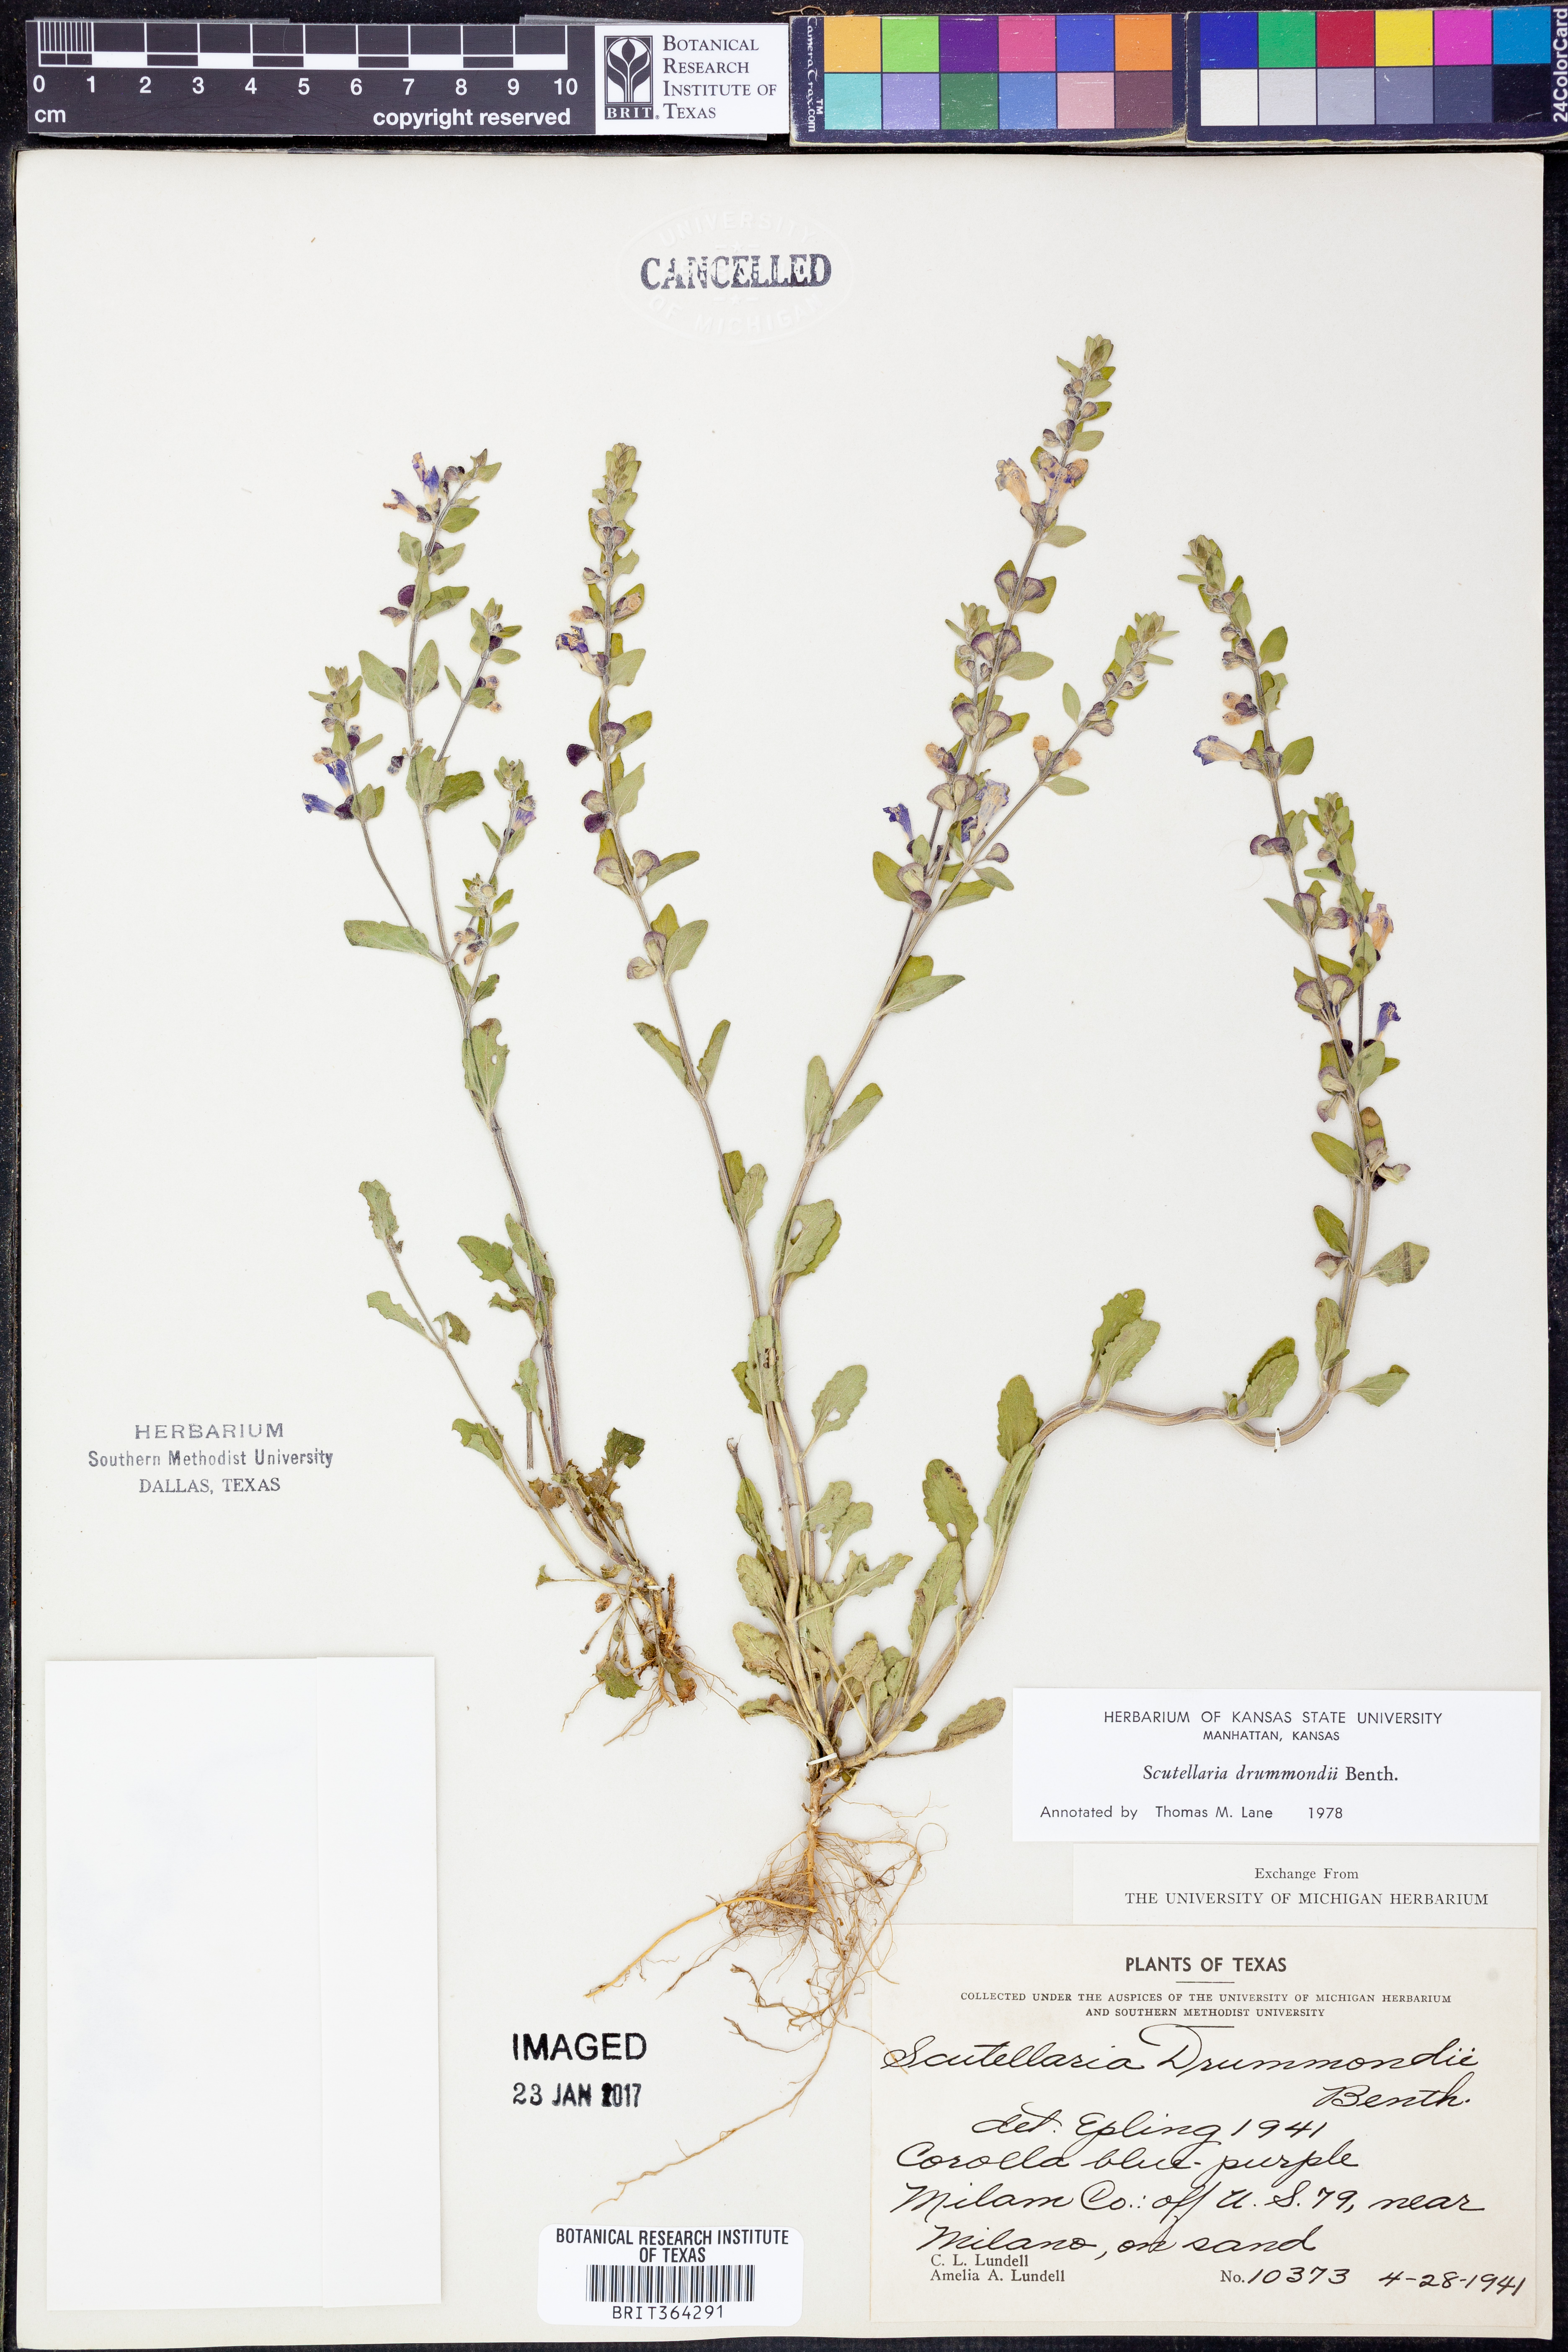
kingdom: Plantae
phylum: Tracheophyta
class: Magnoliopsida
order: Lamiales
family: Lamiaceae
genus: Scutellaria
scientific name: Scutellaria drummondii
